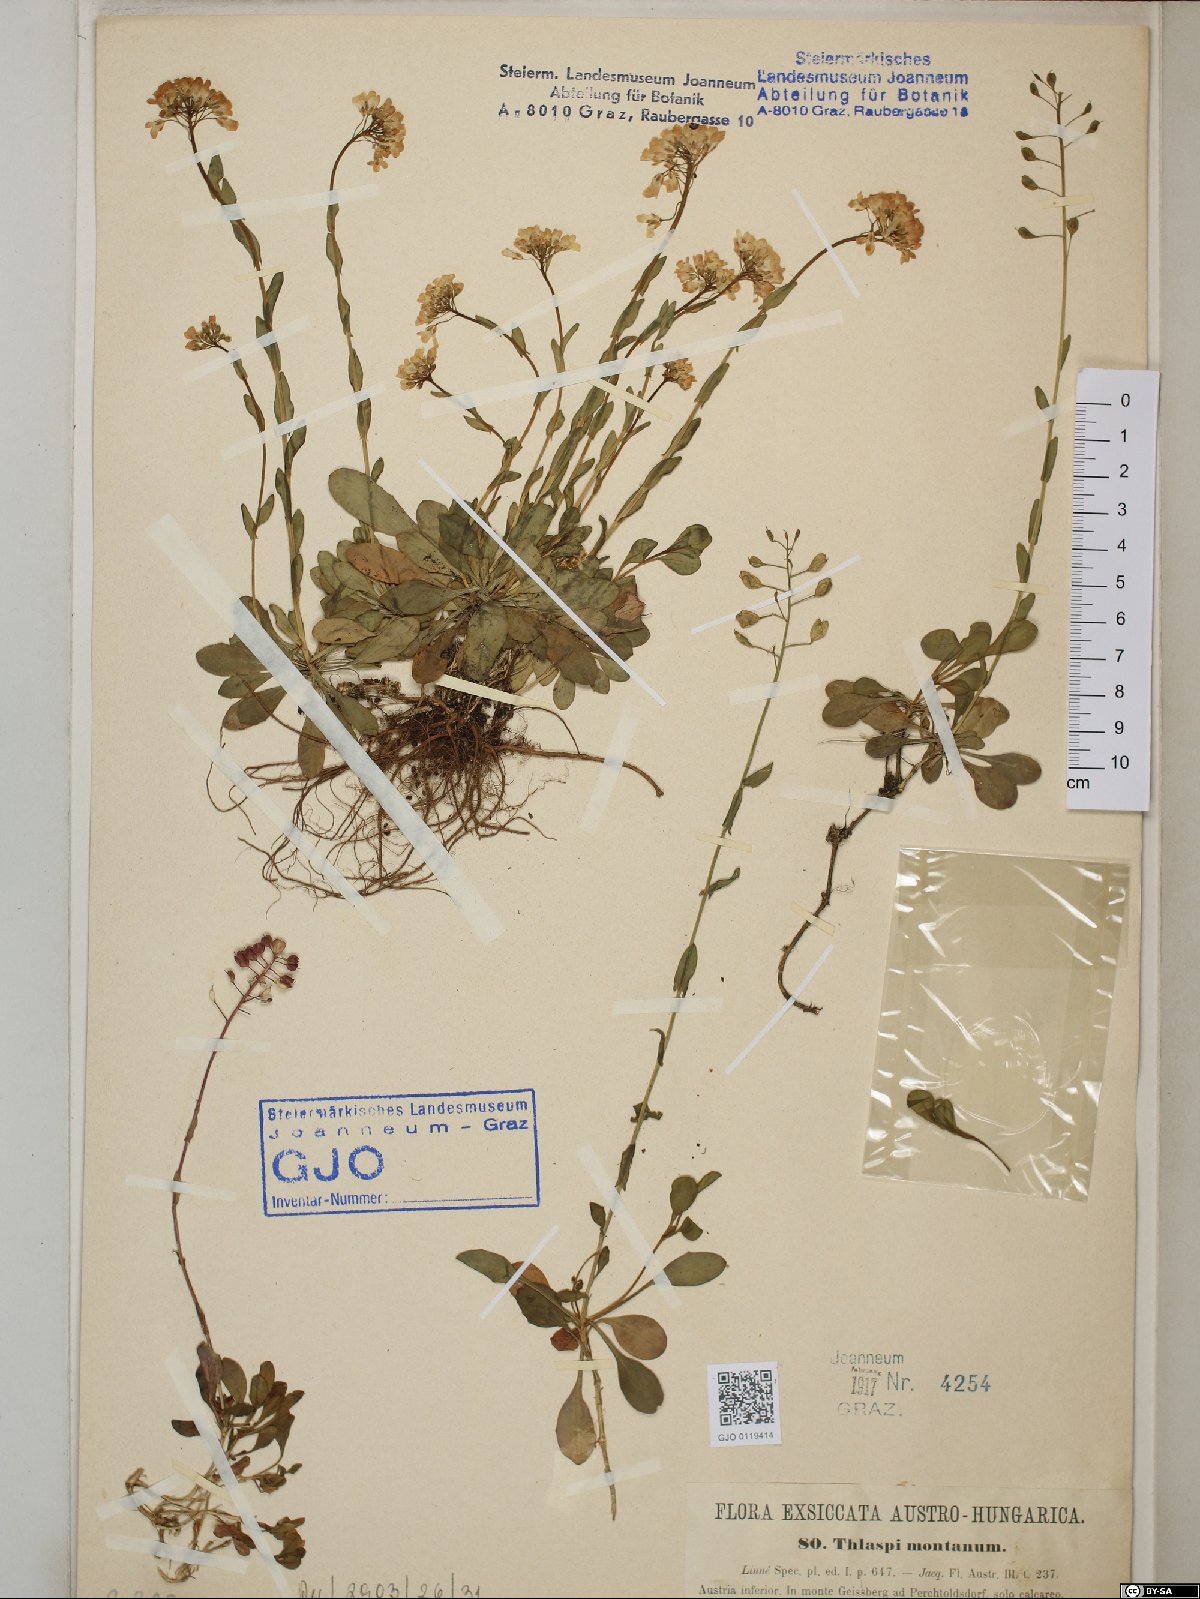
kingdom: Plantae
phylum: Tracheophyta
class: Magnoliopsida
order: Brassicales
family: Brassicaceae
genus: Noccaea
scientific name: Noccaea montana
